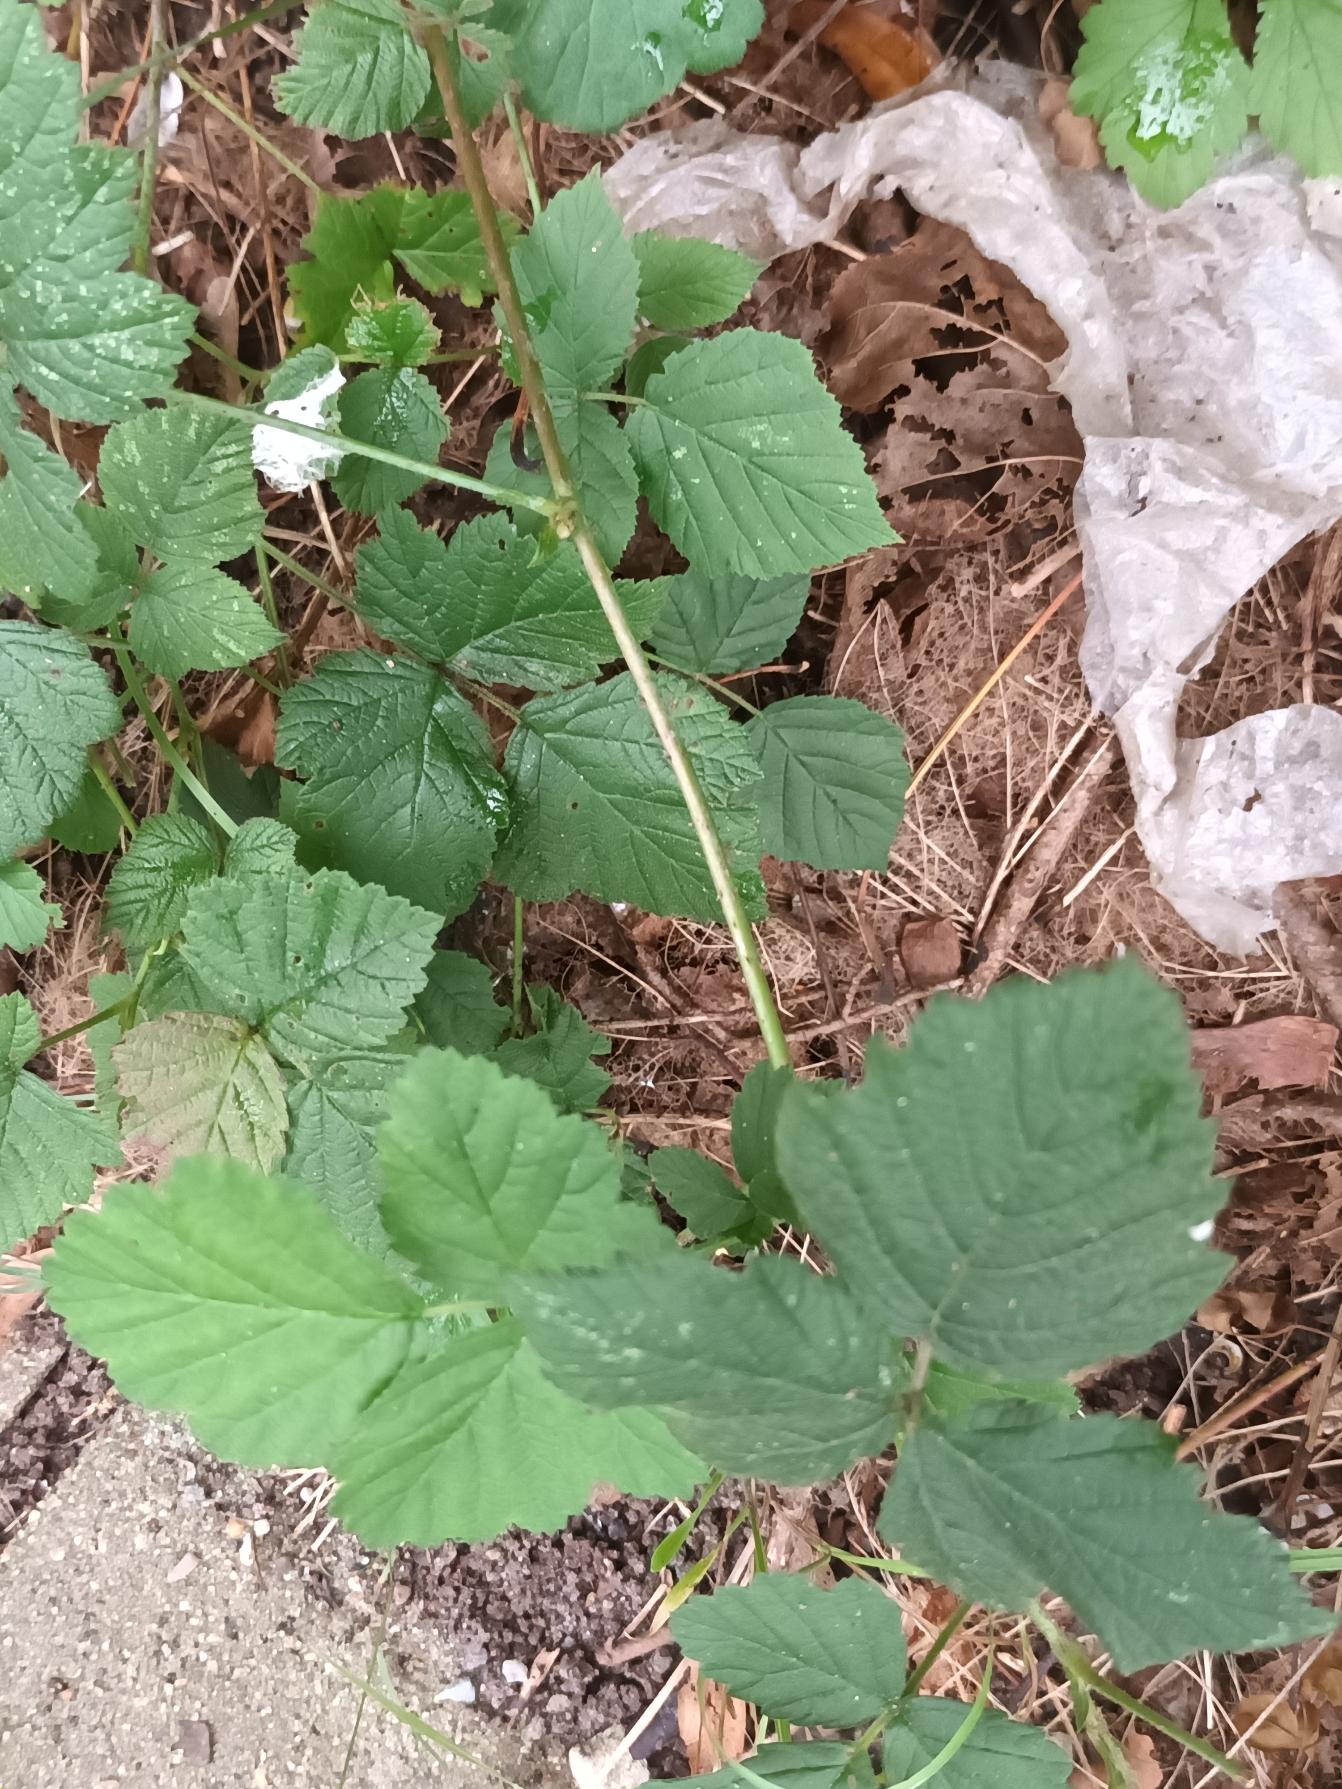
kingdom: Plantae
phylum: Tracheophyta
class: Magnoliopsida
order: Rosales
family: Rosaceae
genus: Rubus
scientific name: Rubus caesius
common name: Korbær
